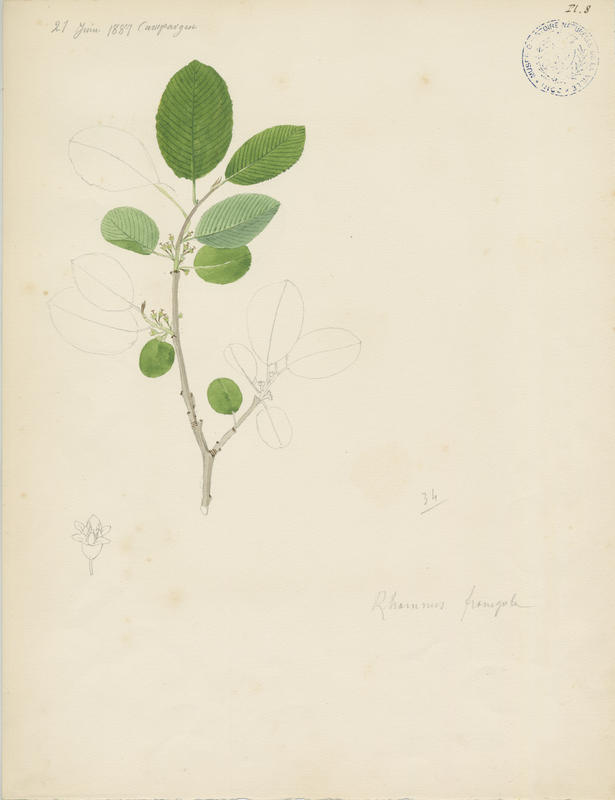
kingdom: Plantae
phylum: Tracheophyta
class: Magnoliopsida
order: Rosales
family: Rhamnaceae
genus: Frangula
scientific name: Frangula alnus
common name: Alder buckthorn
